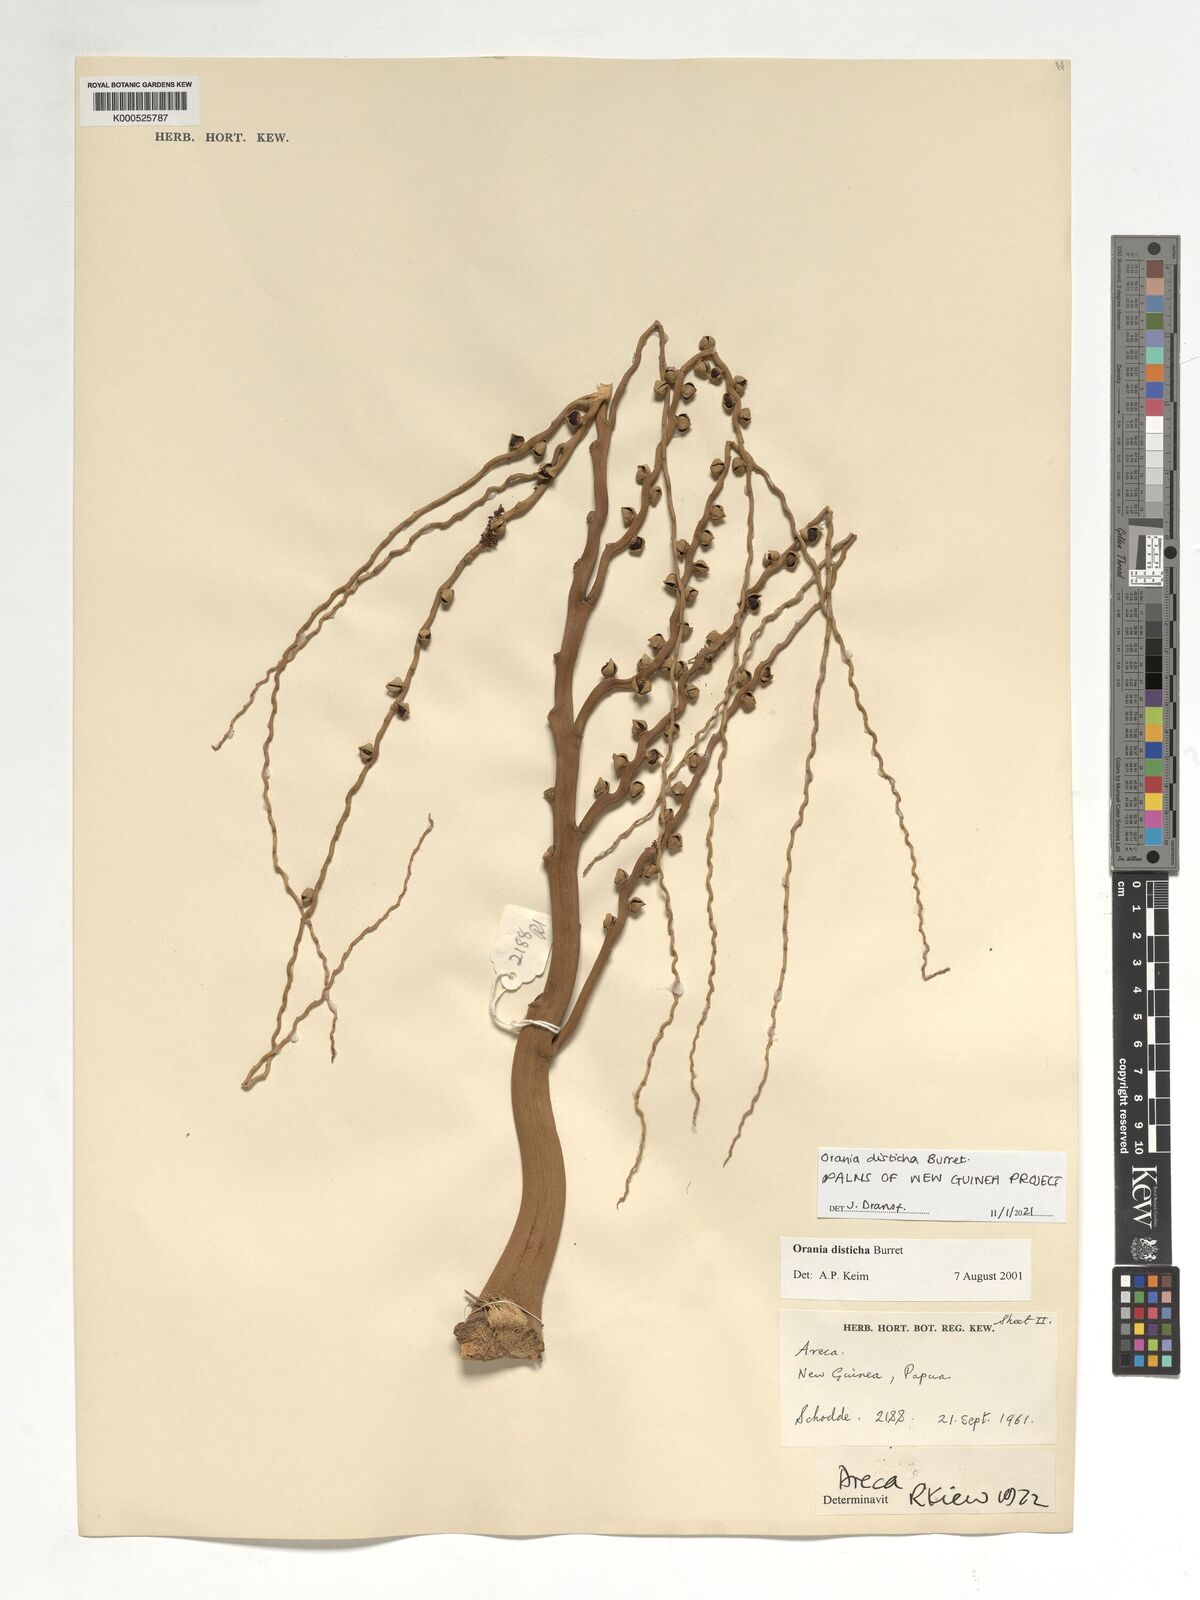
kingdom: Plantae
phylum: Tracheophyta
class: Liliopsida
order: Arecales
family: Arecaceae
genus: Orania
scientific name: Orania disticha
